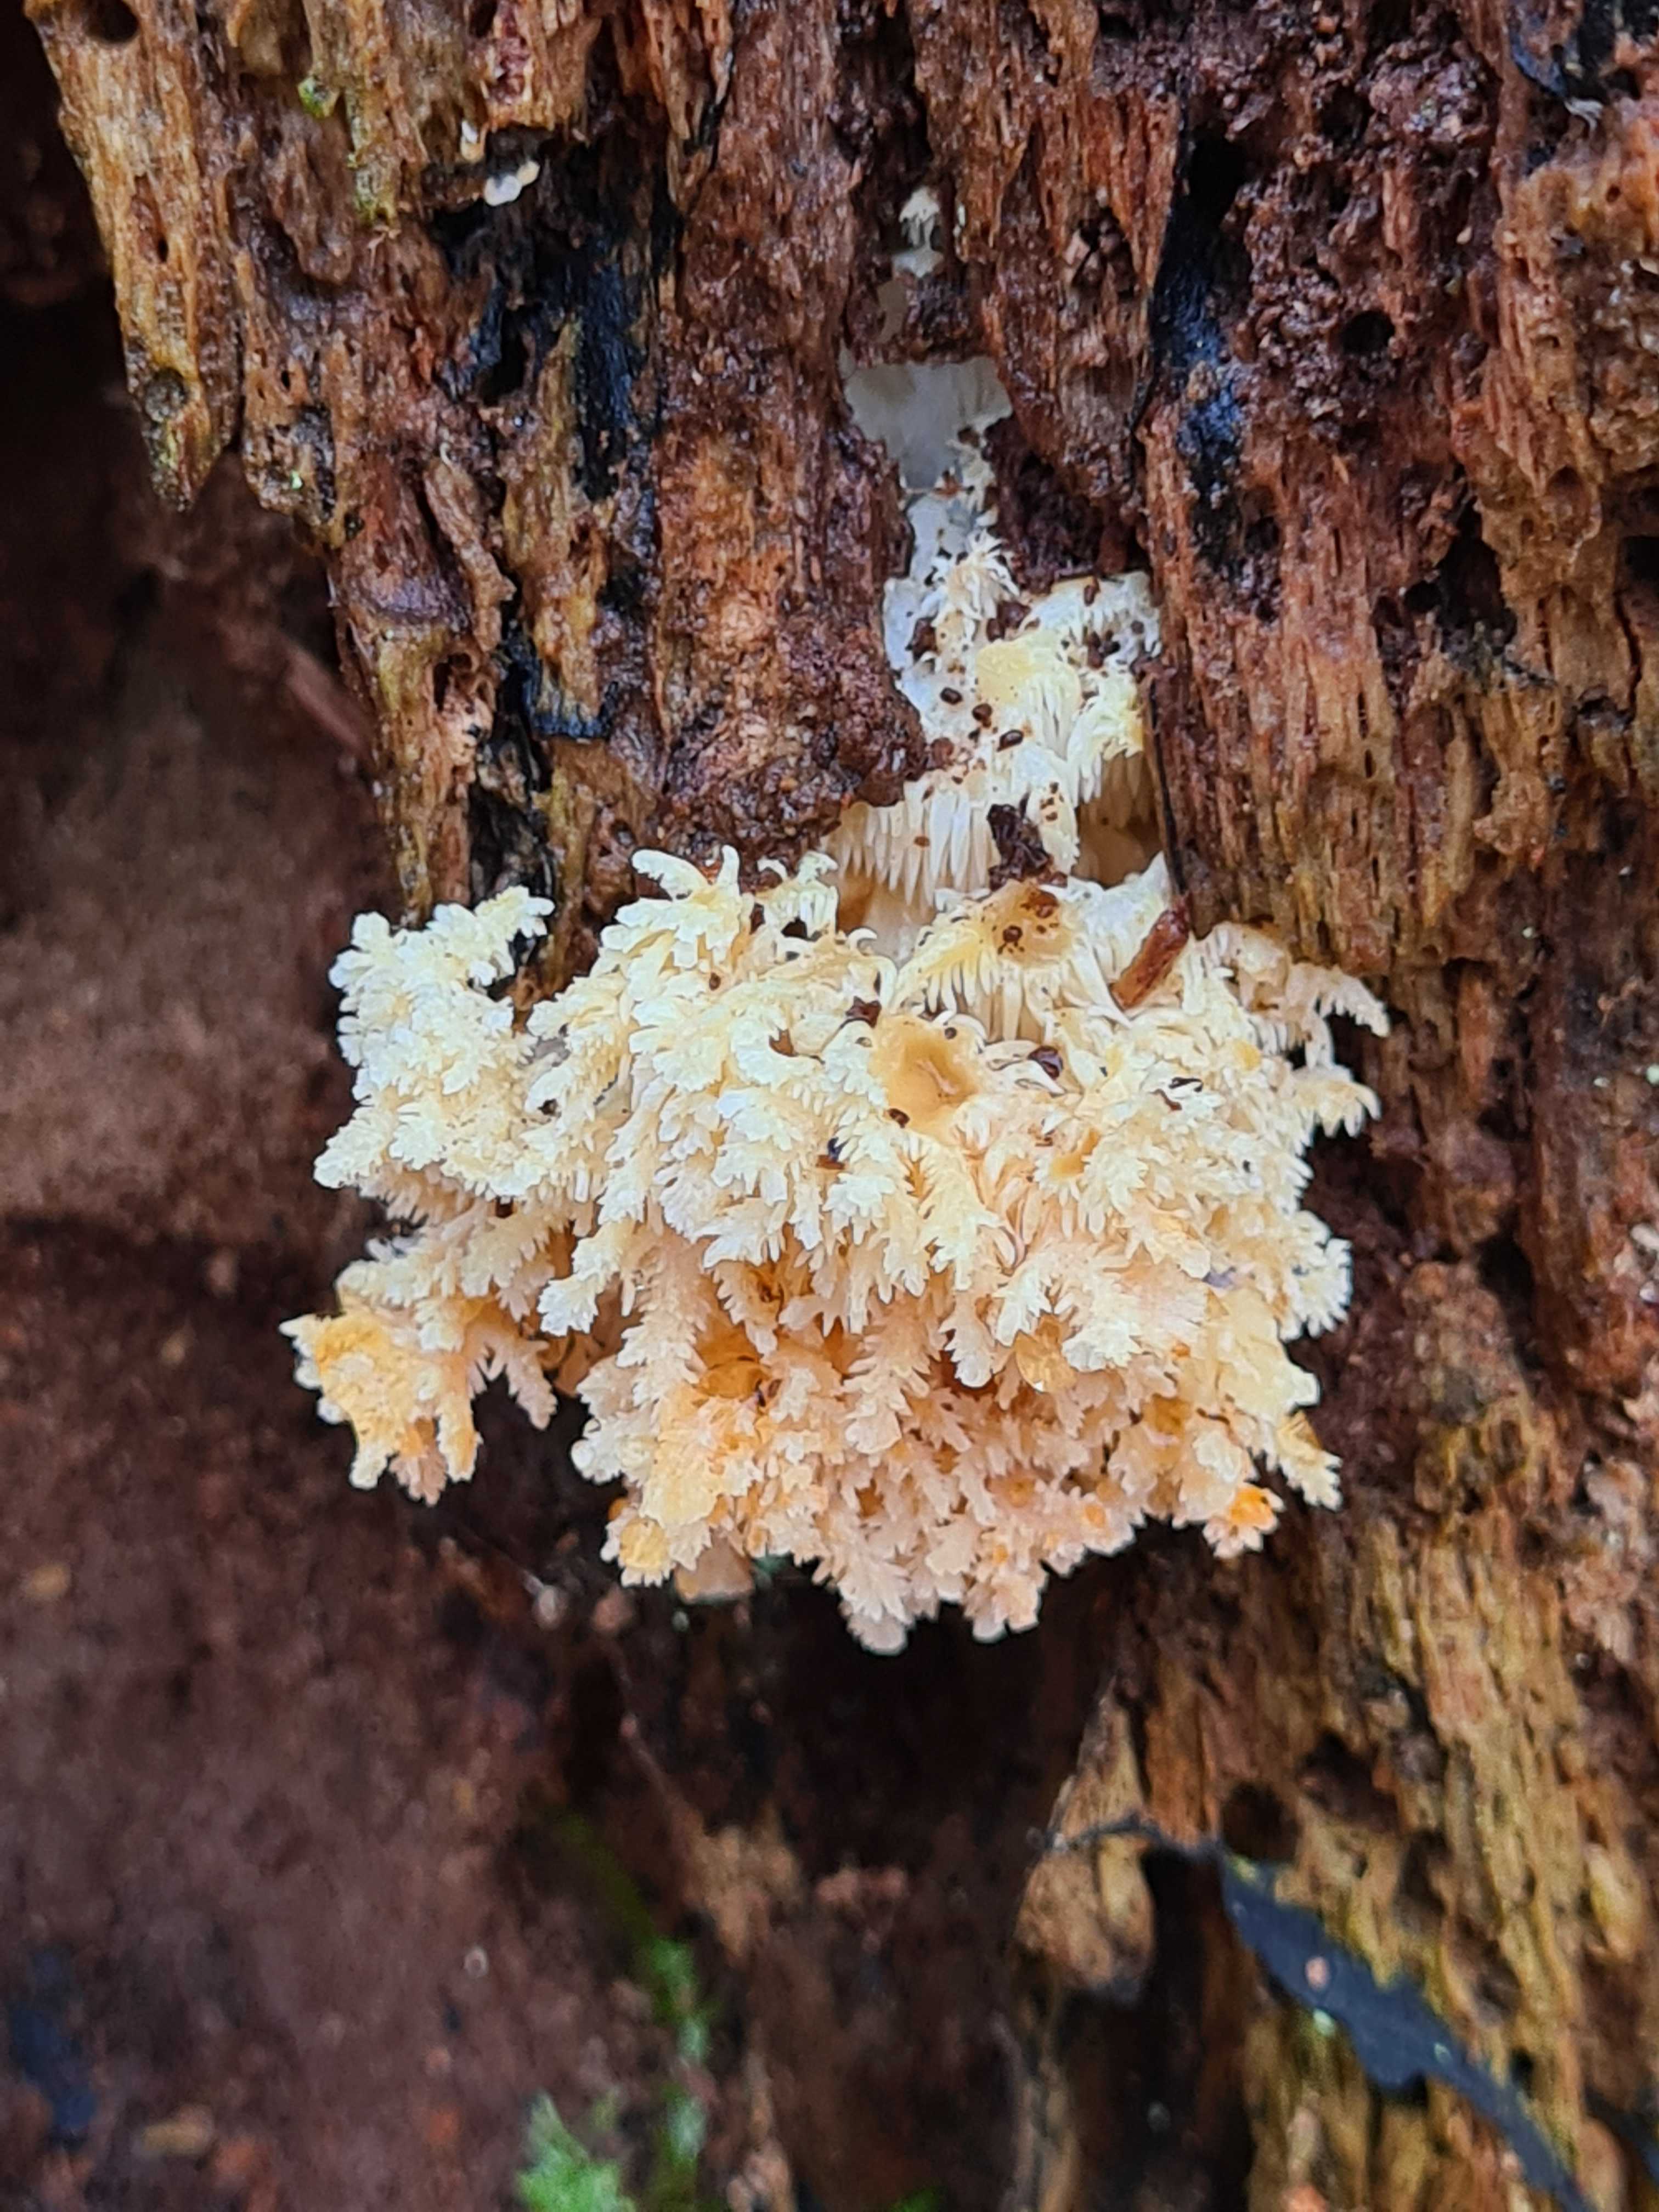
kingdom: Fungi
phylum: Basidiomycota
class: Agaricomycetes
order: Russulales
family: Hericiaceae
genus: Hericium
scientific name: Hericium coralloides
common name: koralpigsvamp
